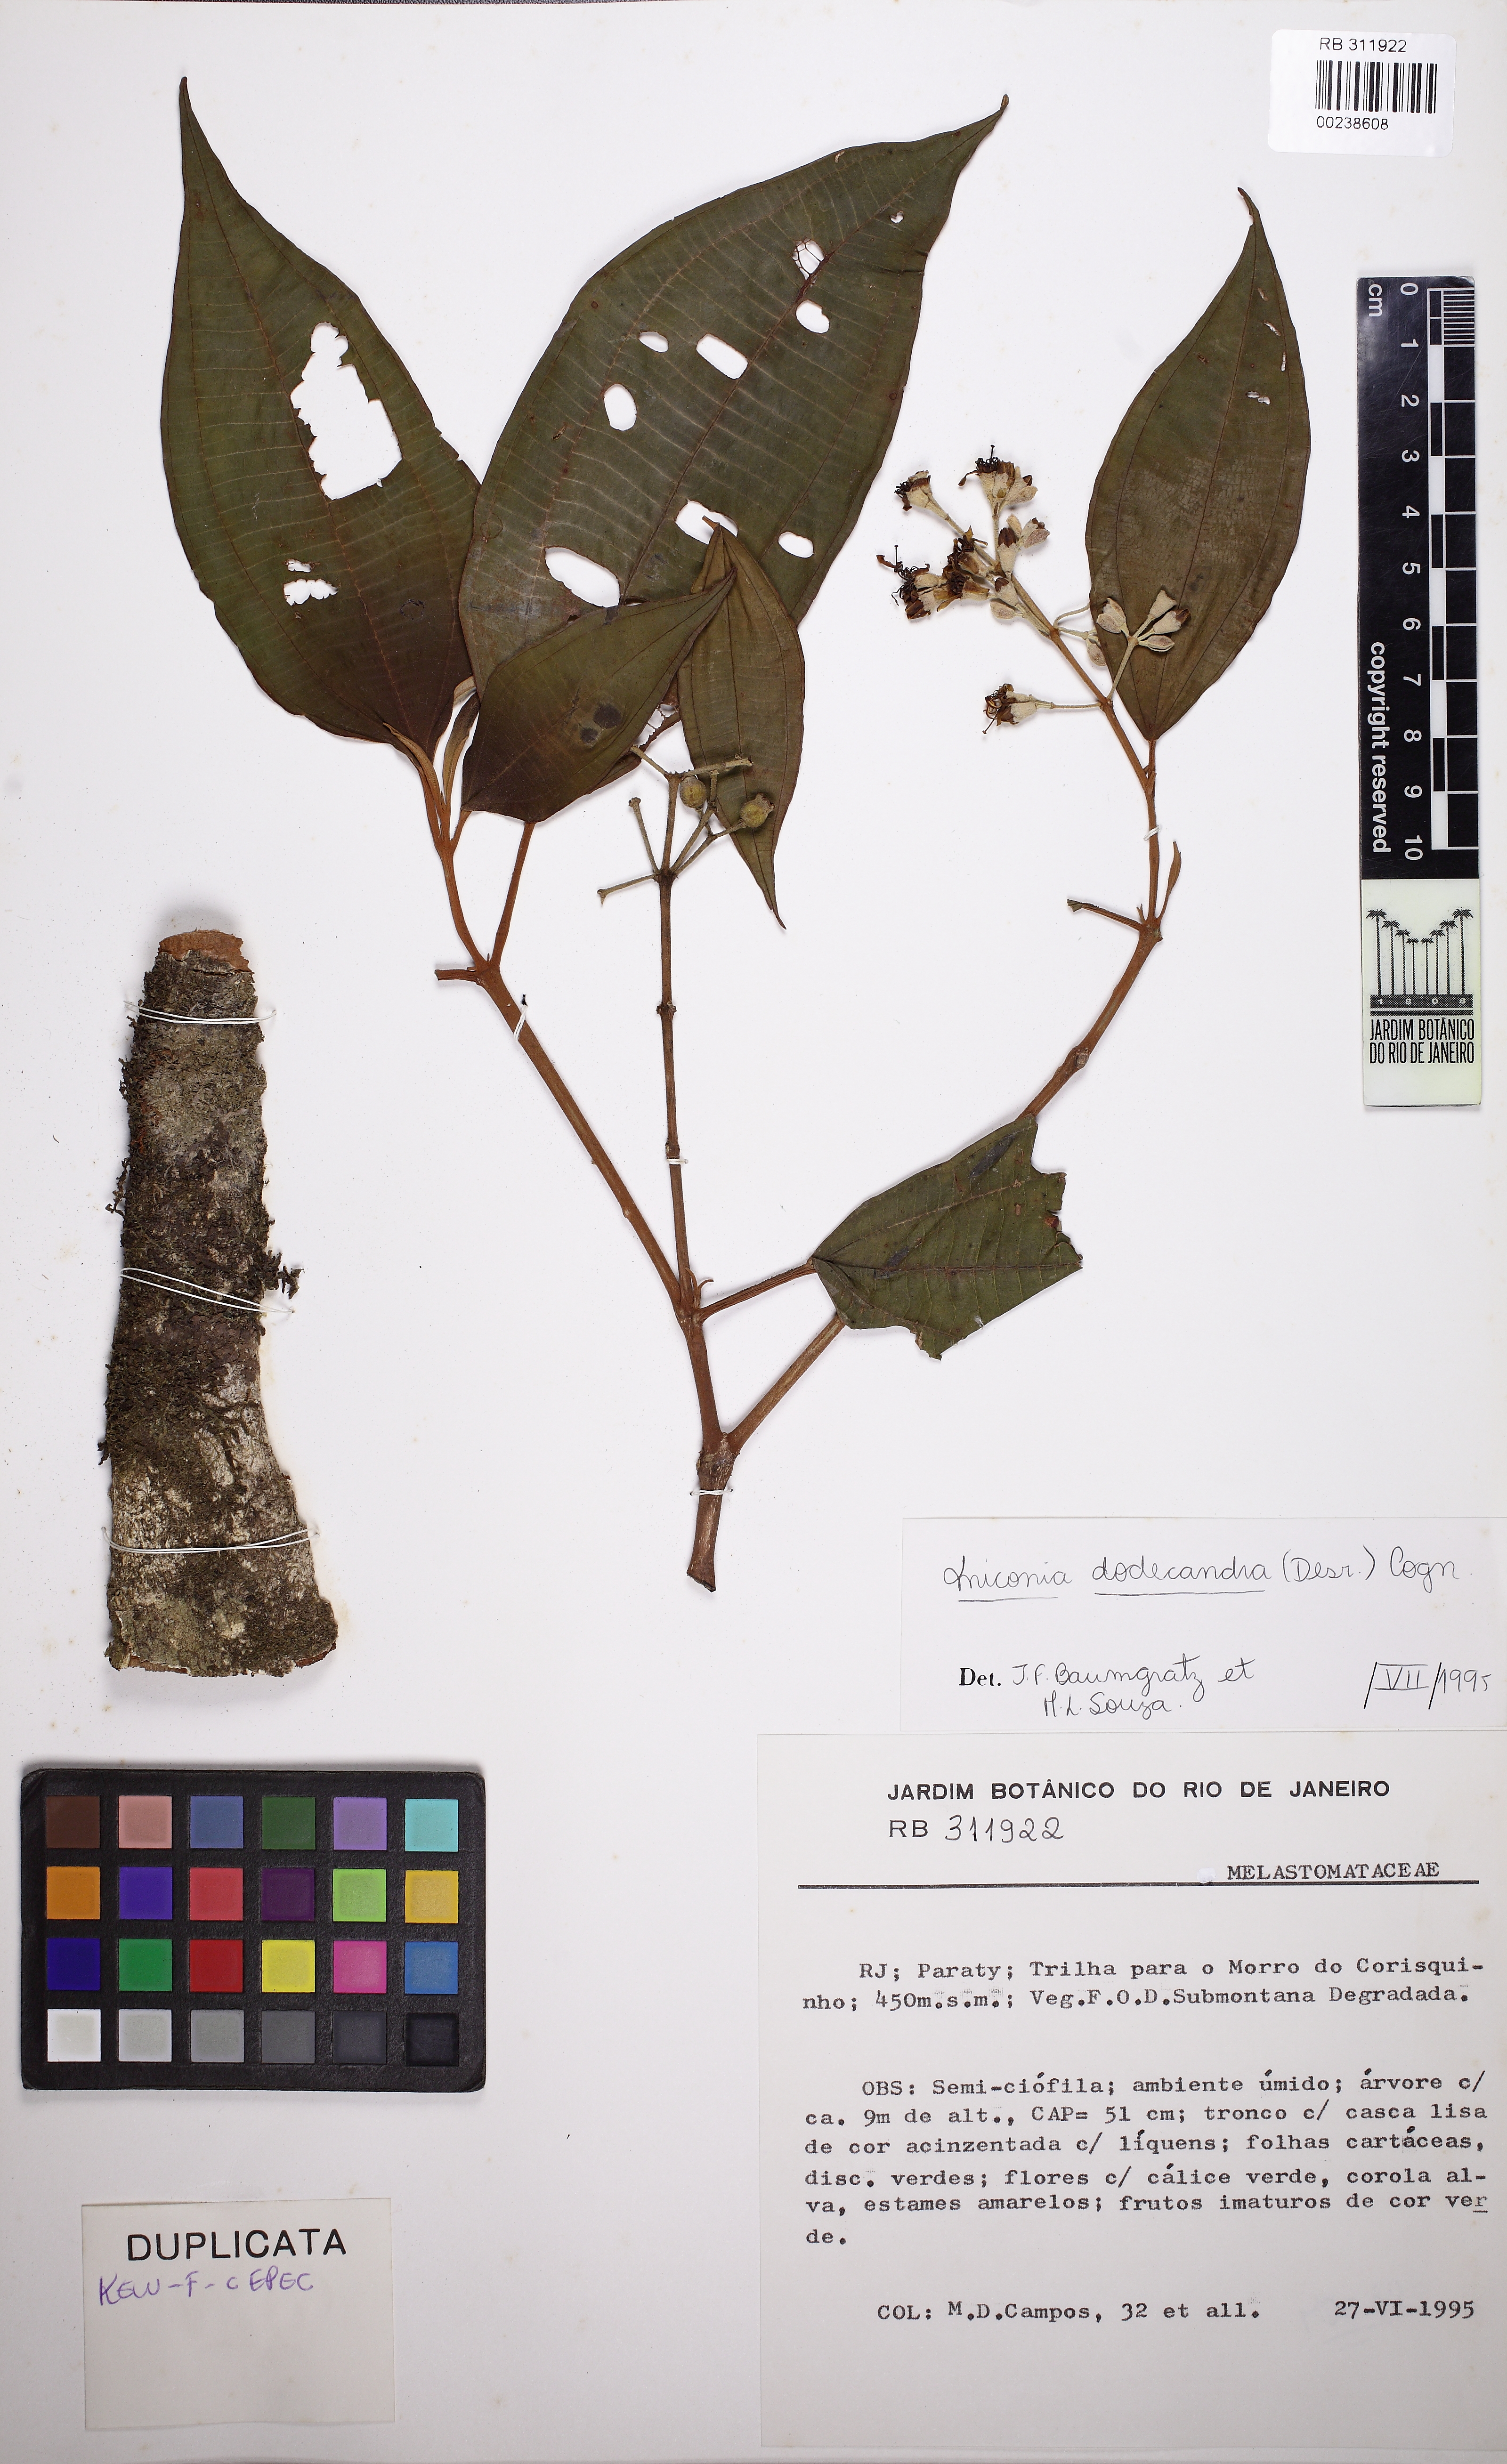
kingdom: Plantae
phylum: Tracheophyta
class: Magnoliopsida
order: Myrtales
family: Melastomataceae
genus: Miconia
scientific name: Miconia dodecandra
